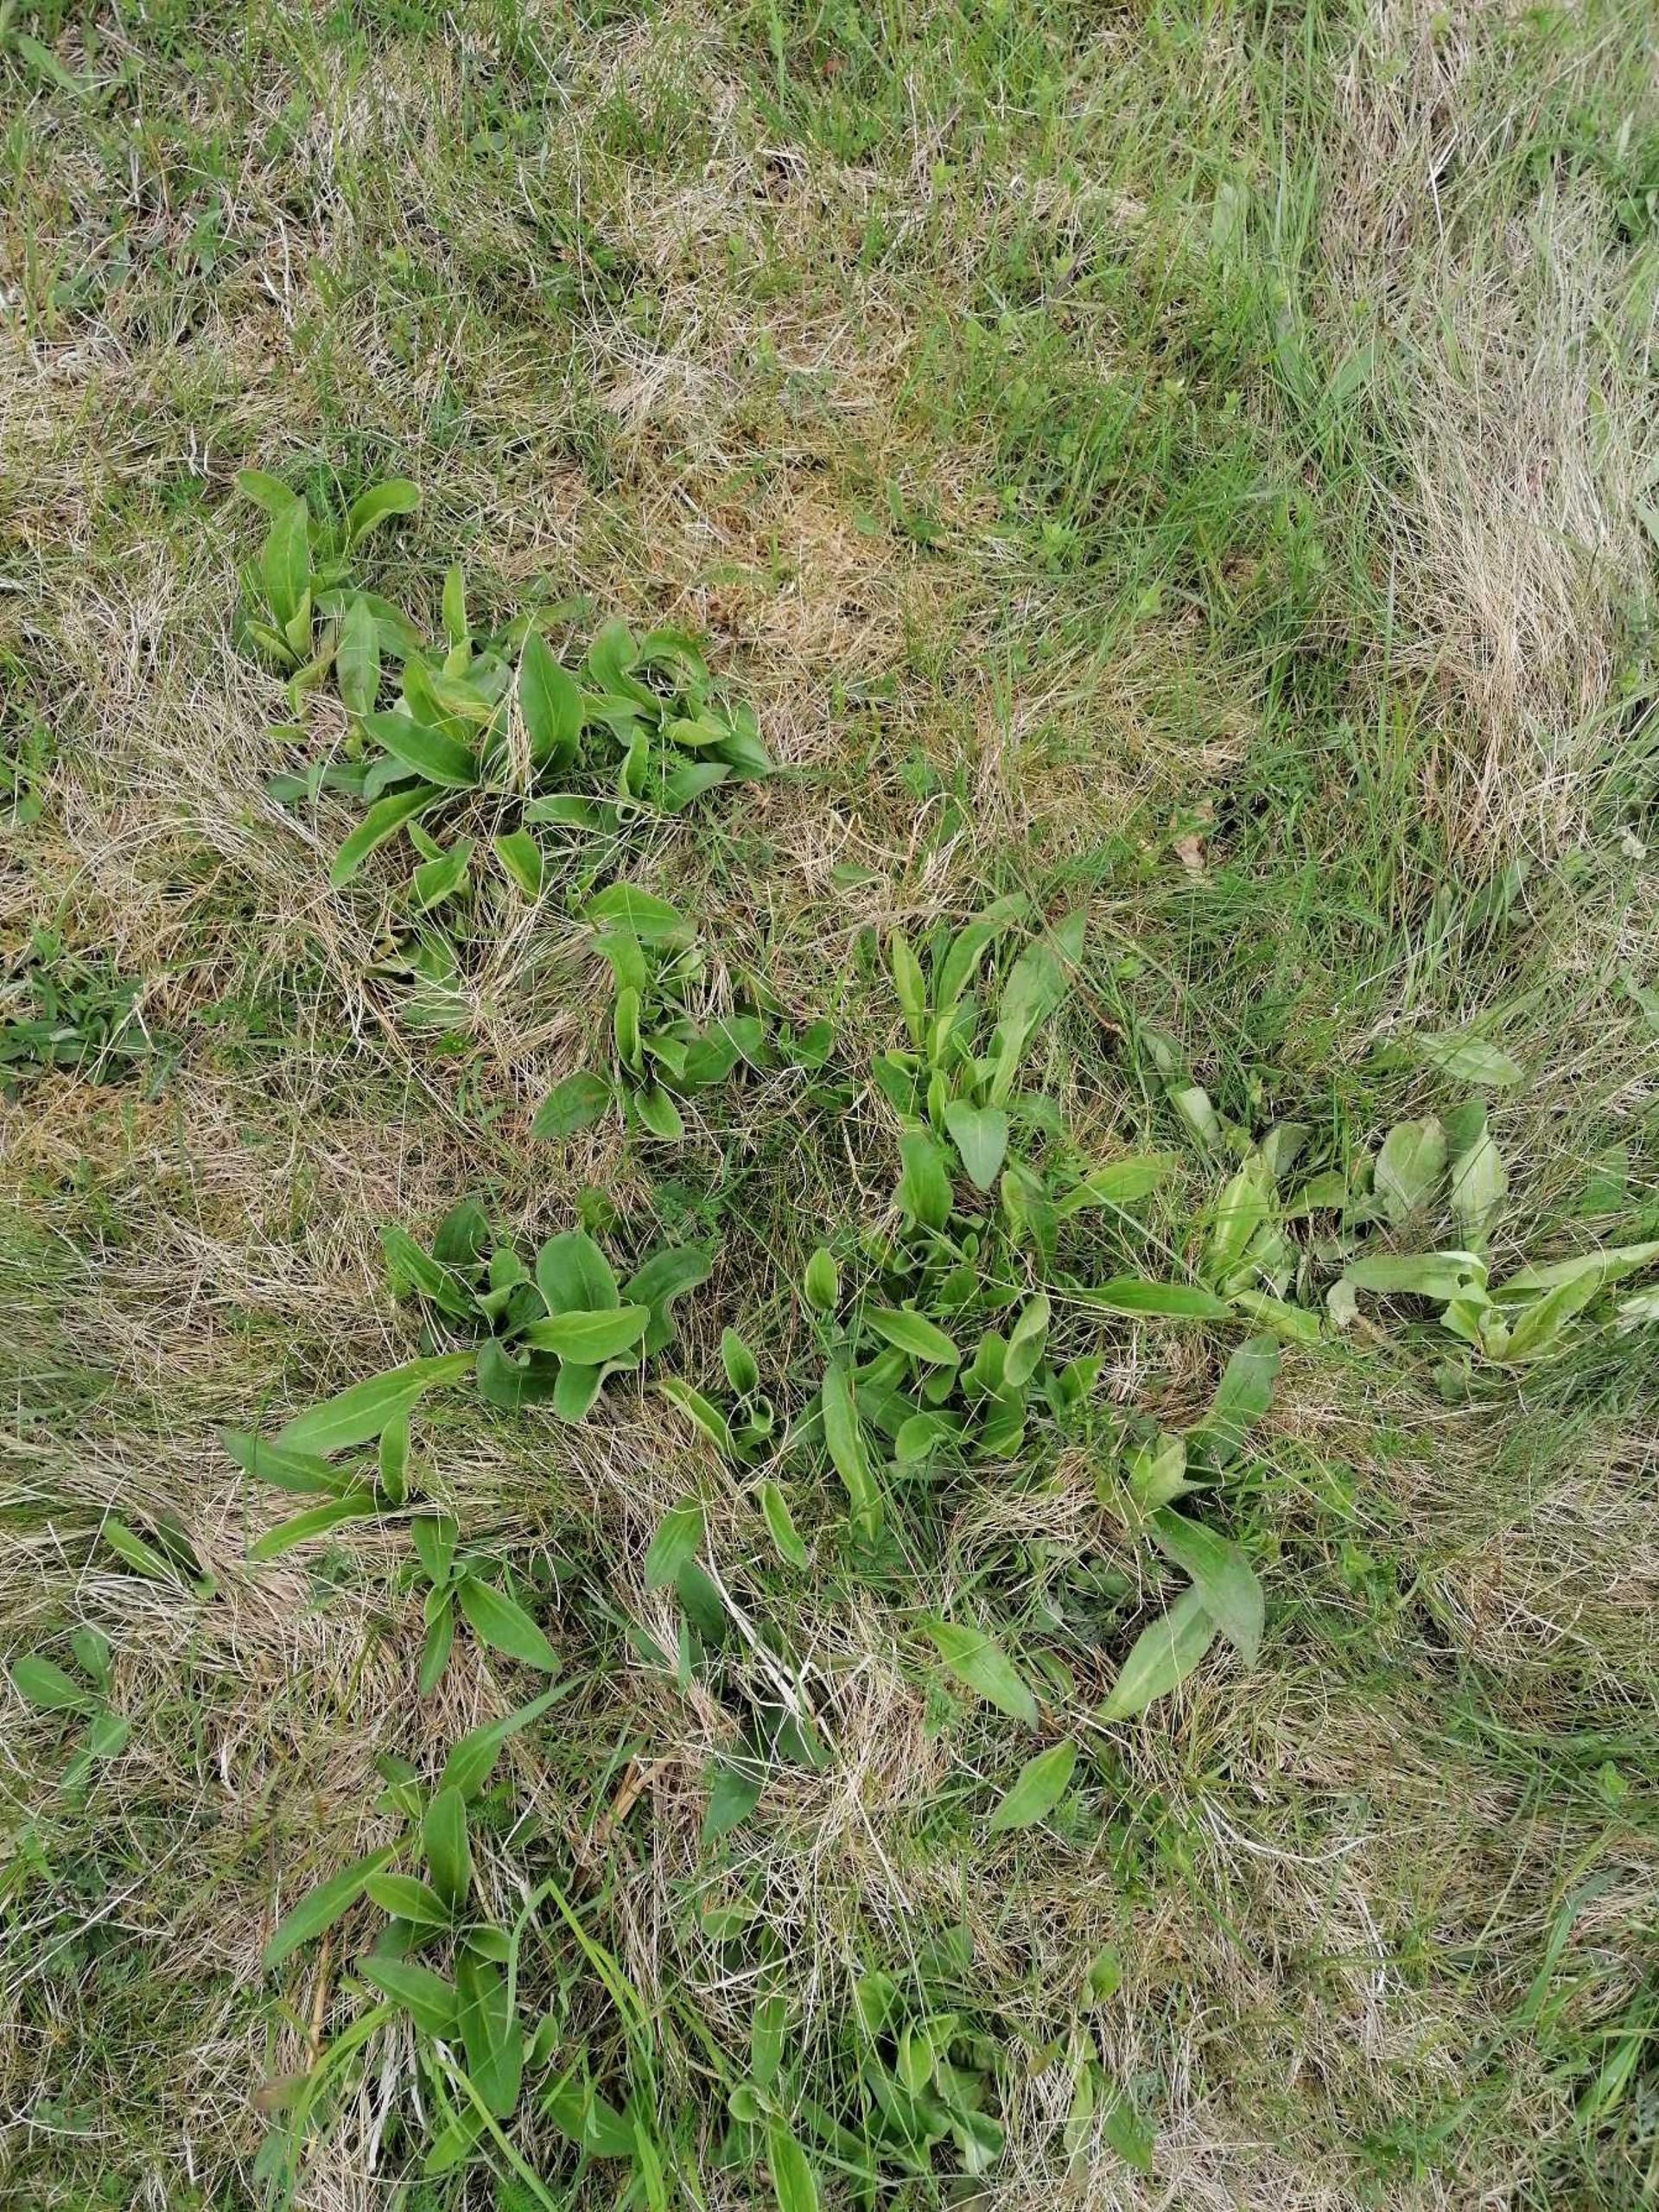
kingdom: Plantae
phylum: Tracheophyta
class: Magnoliopsida
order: Asterales
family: Asteraceae
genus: Arnica
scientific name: Arnica montana
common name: Guldblomme
